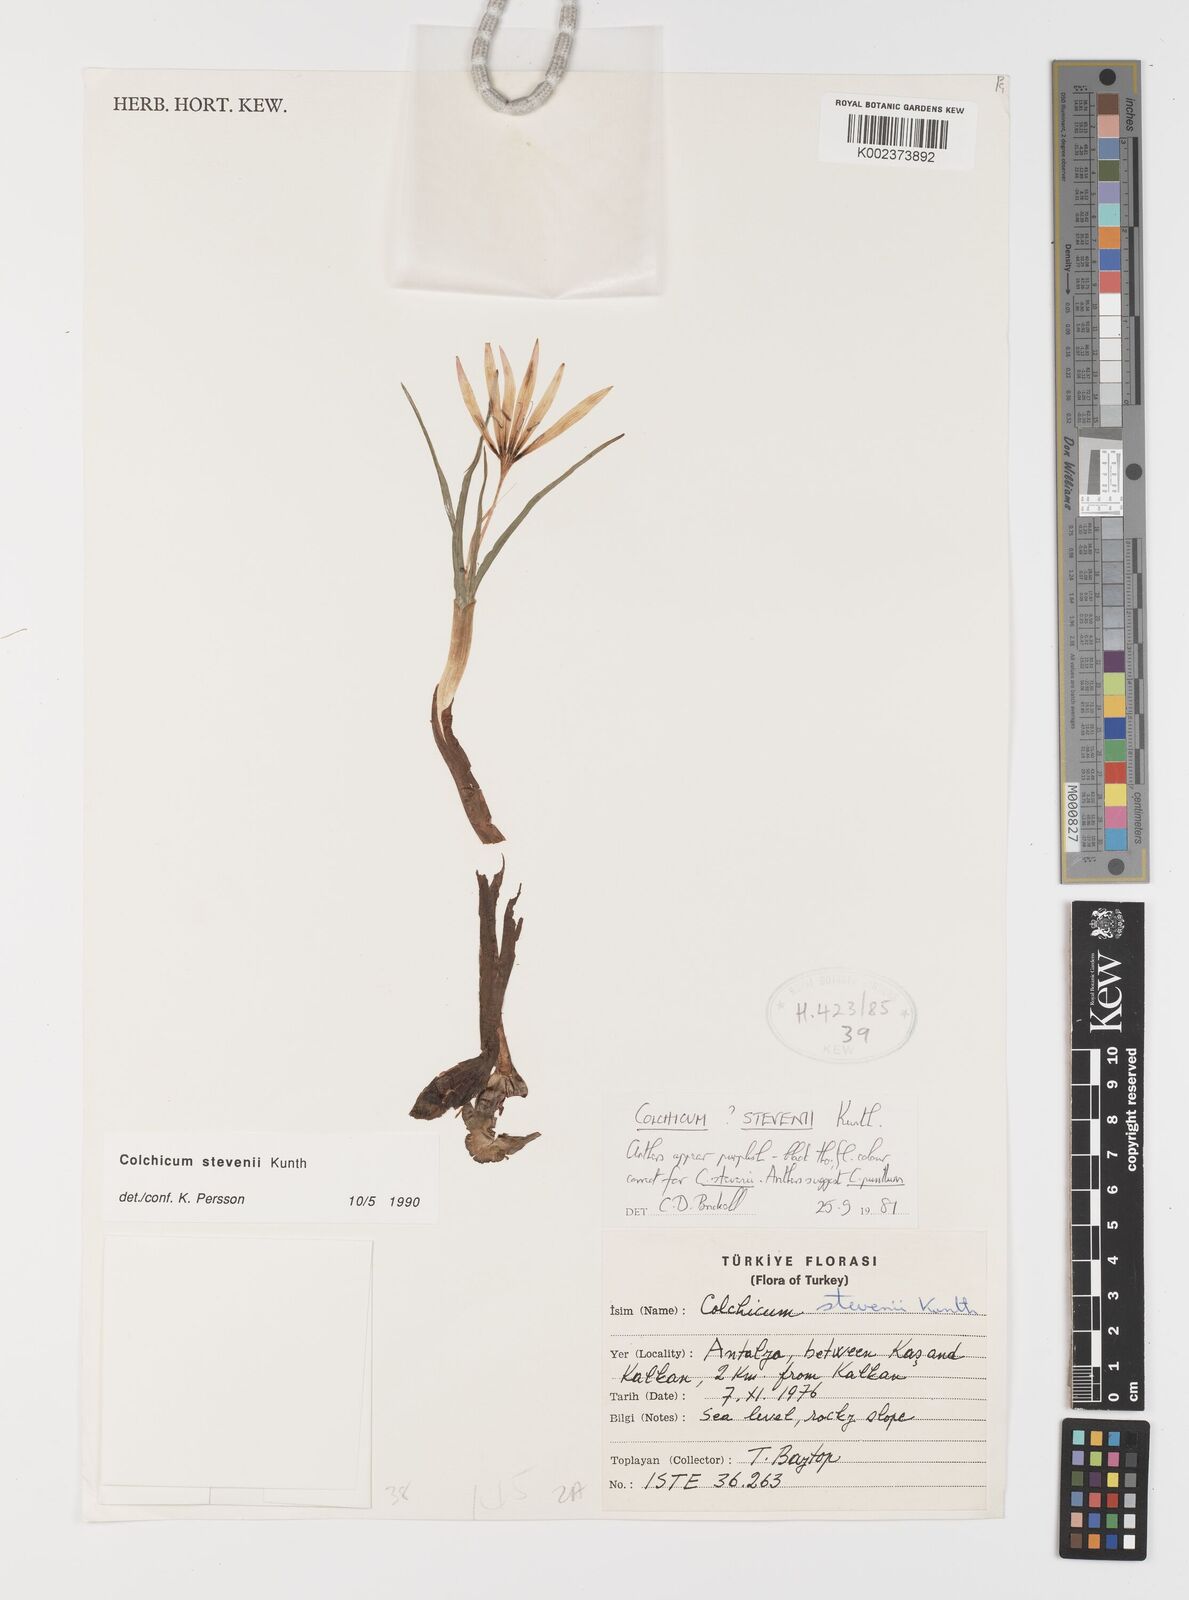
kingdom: Plantae
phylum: Tracheophyta
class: Liliopsida
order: Liliales
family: Colchicaceae
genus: Colchicum
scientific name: Colchicum stevenii
